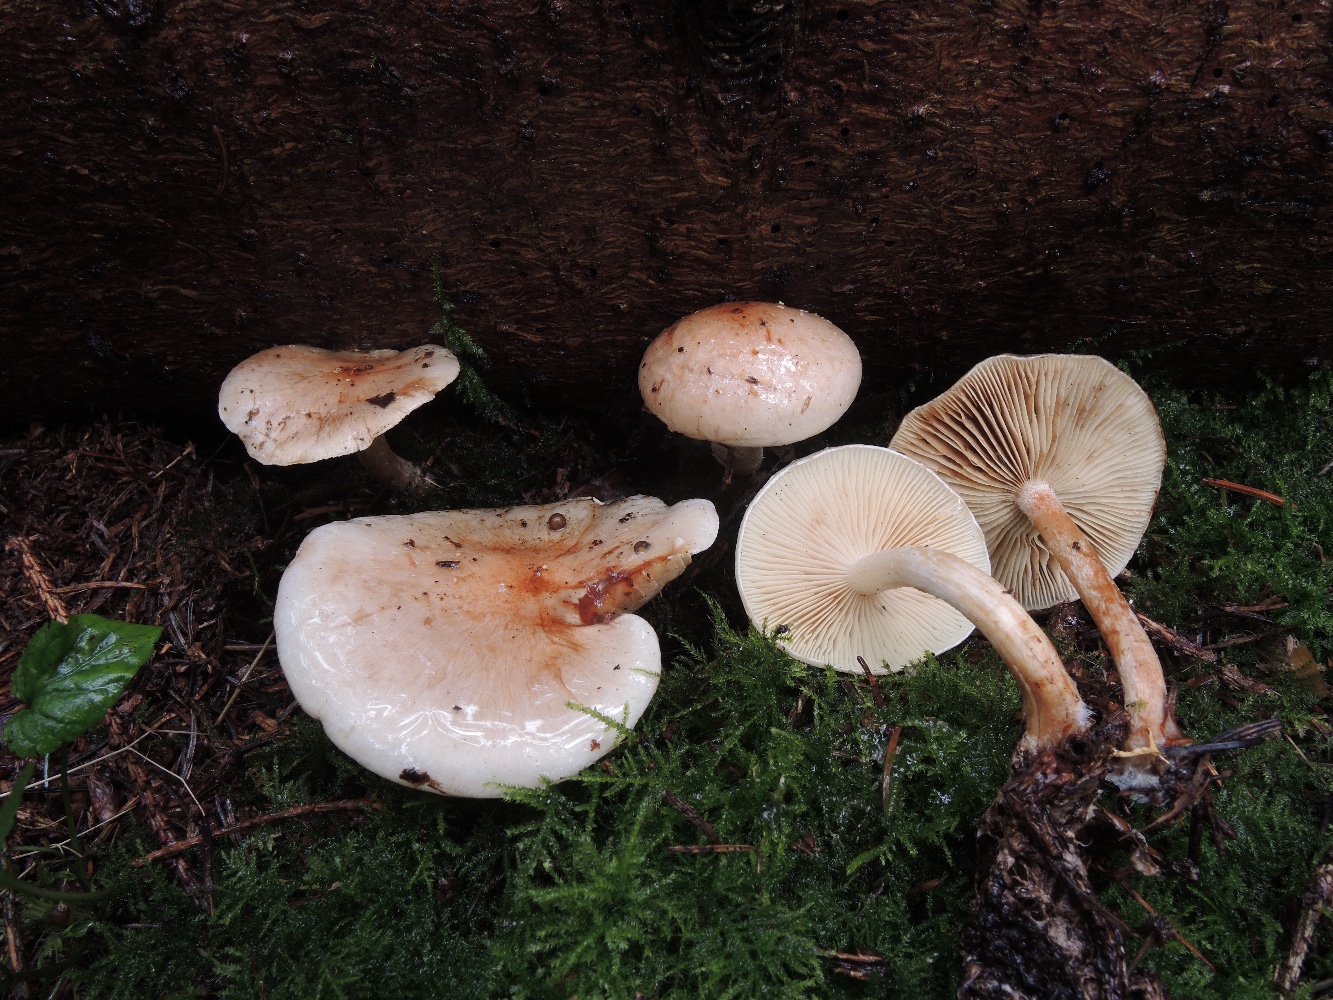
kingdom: Fungi
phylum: Basidiomycota
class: Agaricomycetes
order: Agaricales
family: Strophariaceae
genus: Pholiota
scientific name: Pholiota lenta
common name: løv-skælhat
